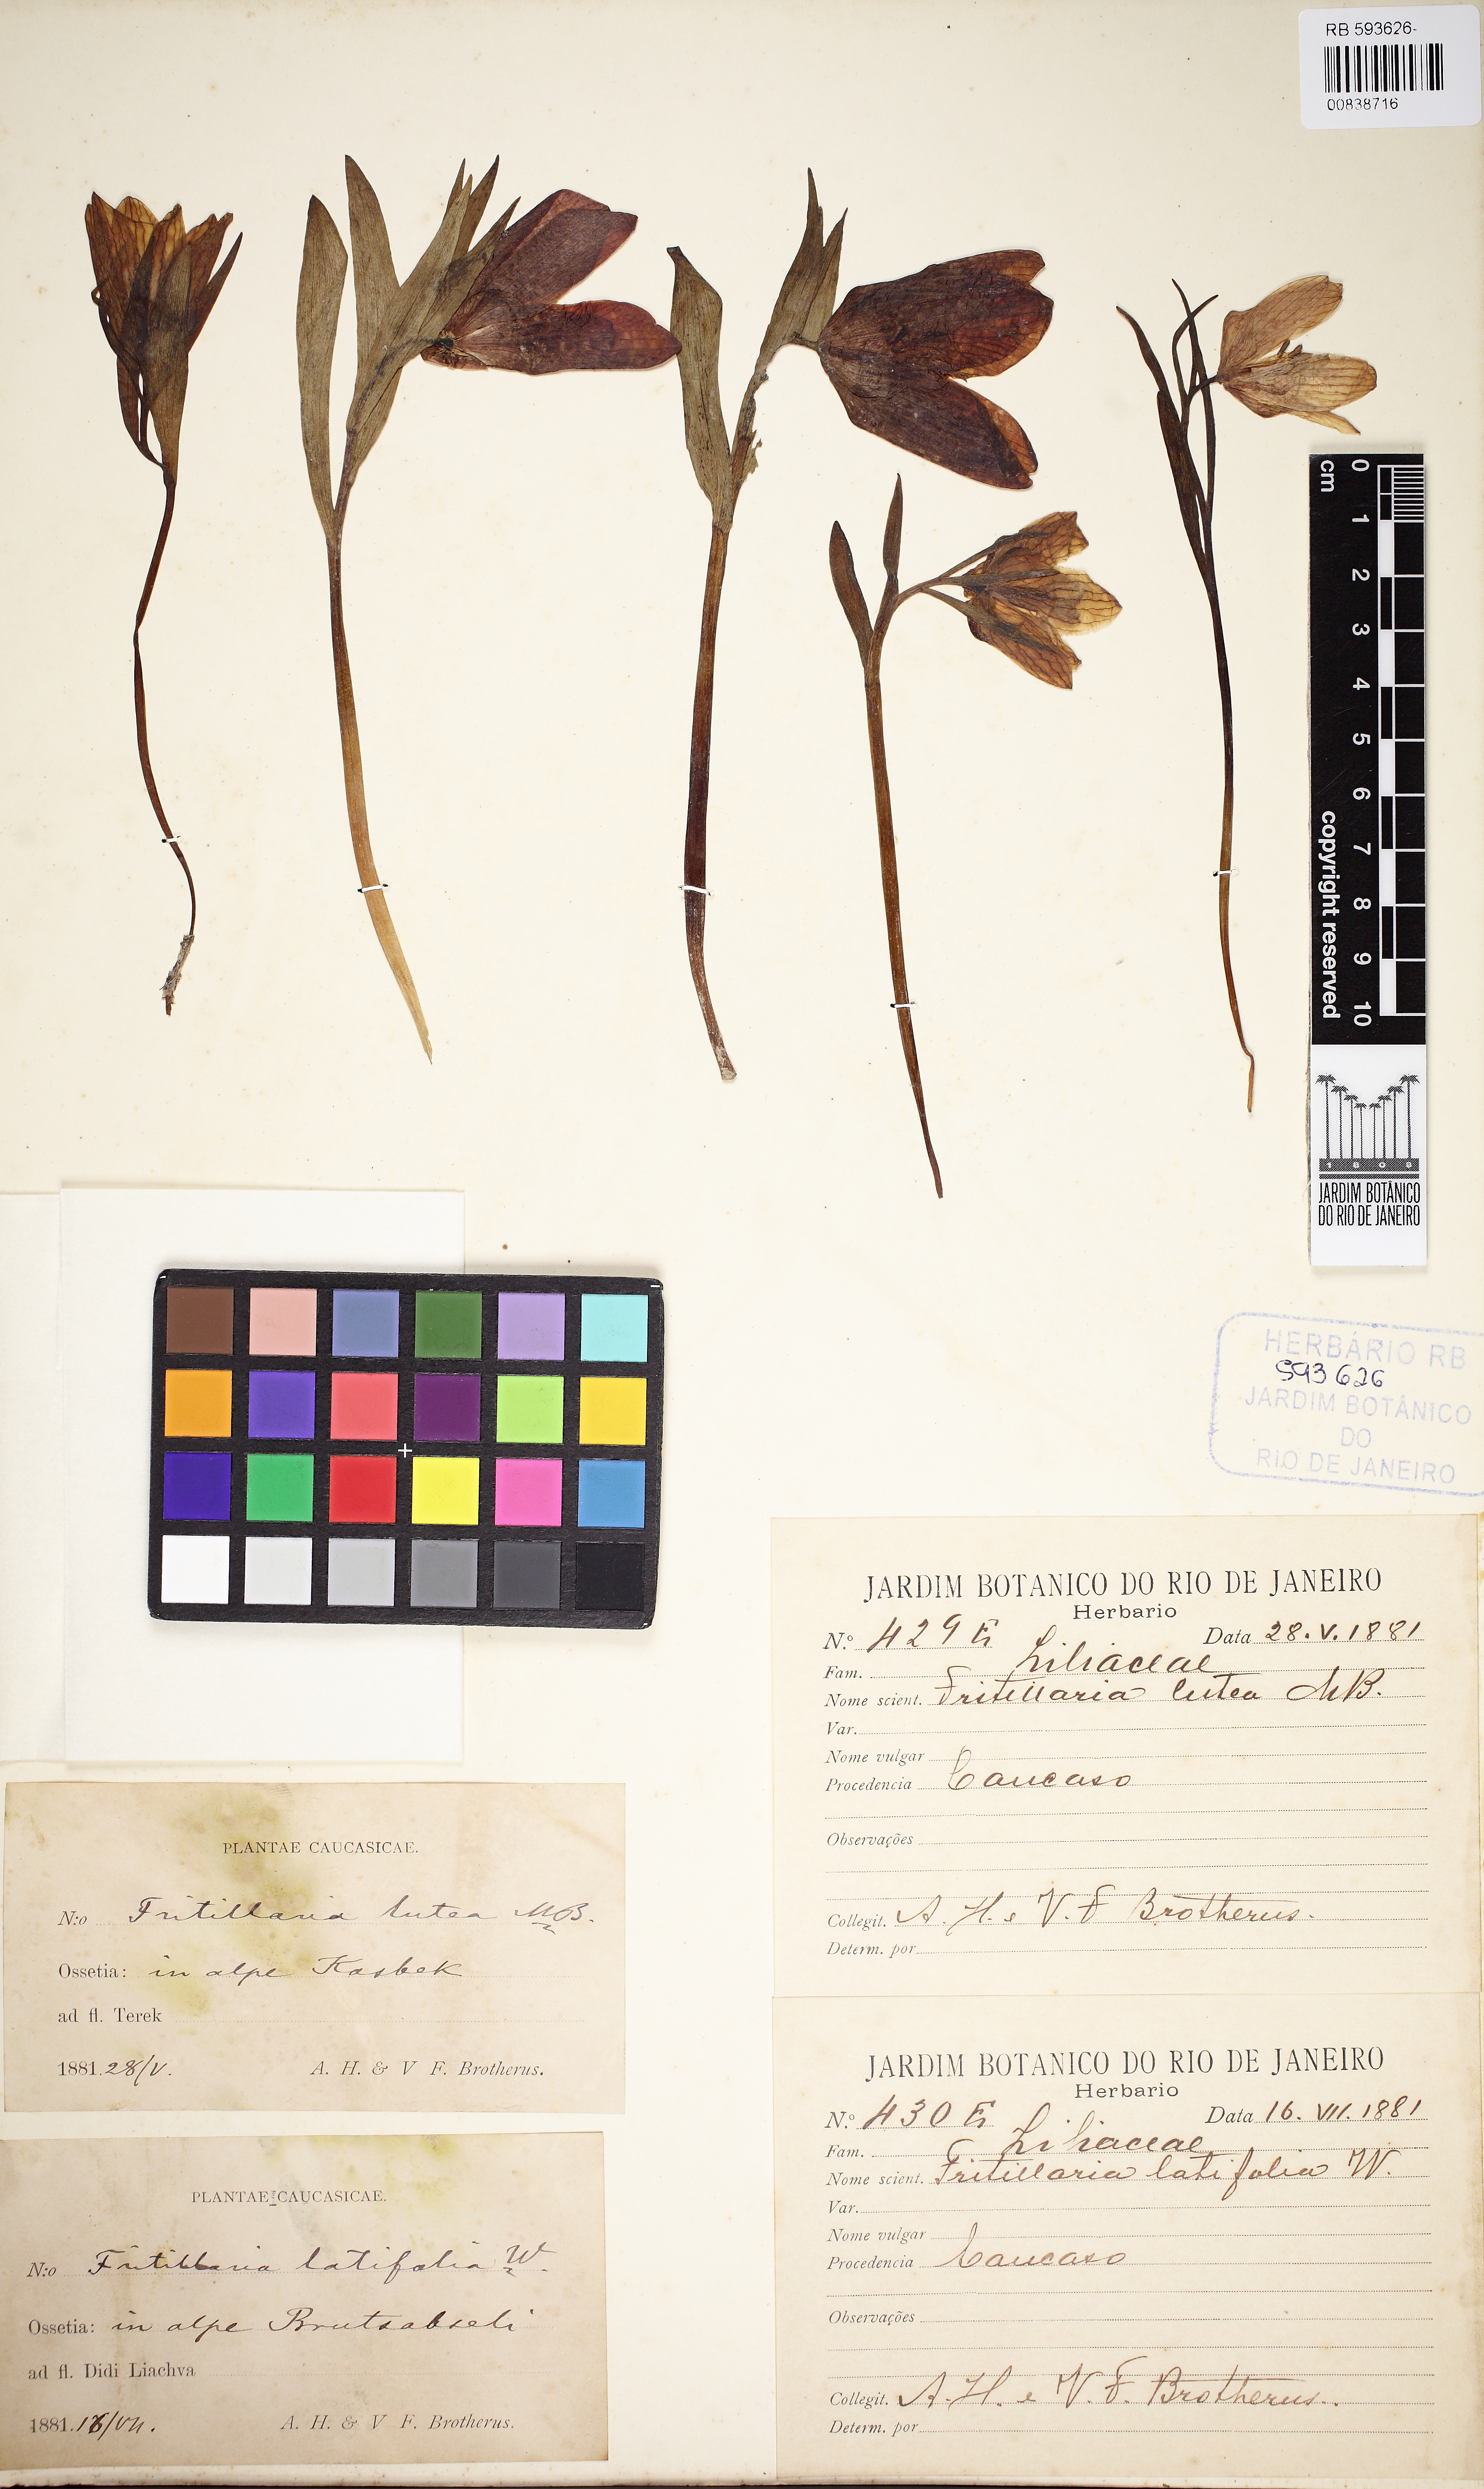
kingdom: Plantae
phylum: Tracheophyta
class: Liliopsida
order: Liliales
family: Liliaceae
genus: Fritillaria
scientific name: Fritillaria lutea
